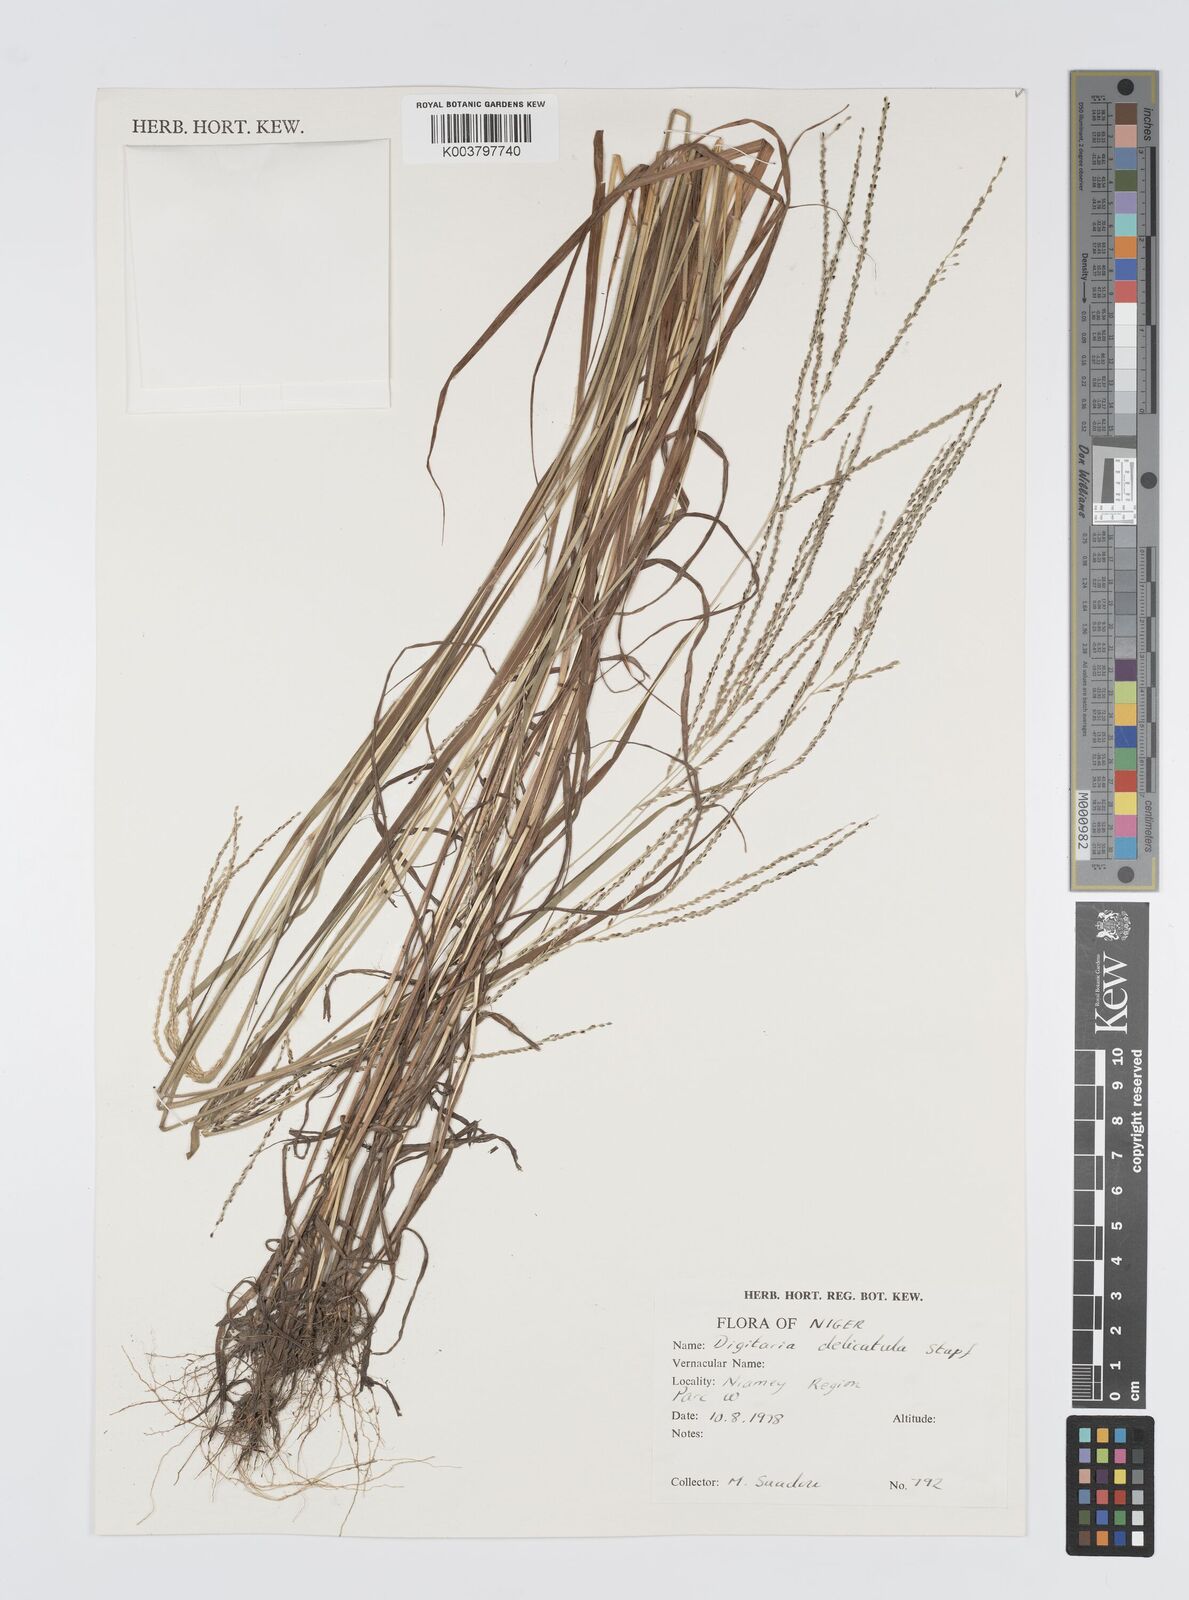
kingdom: Plantae
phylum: Tracheophyta
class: Liliopsida
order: Poales
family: Poaceae
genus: Digitaria
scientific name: Digitaria delicatula
